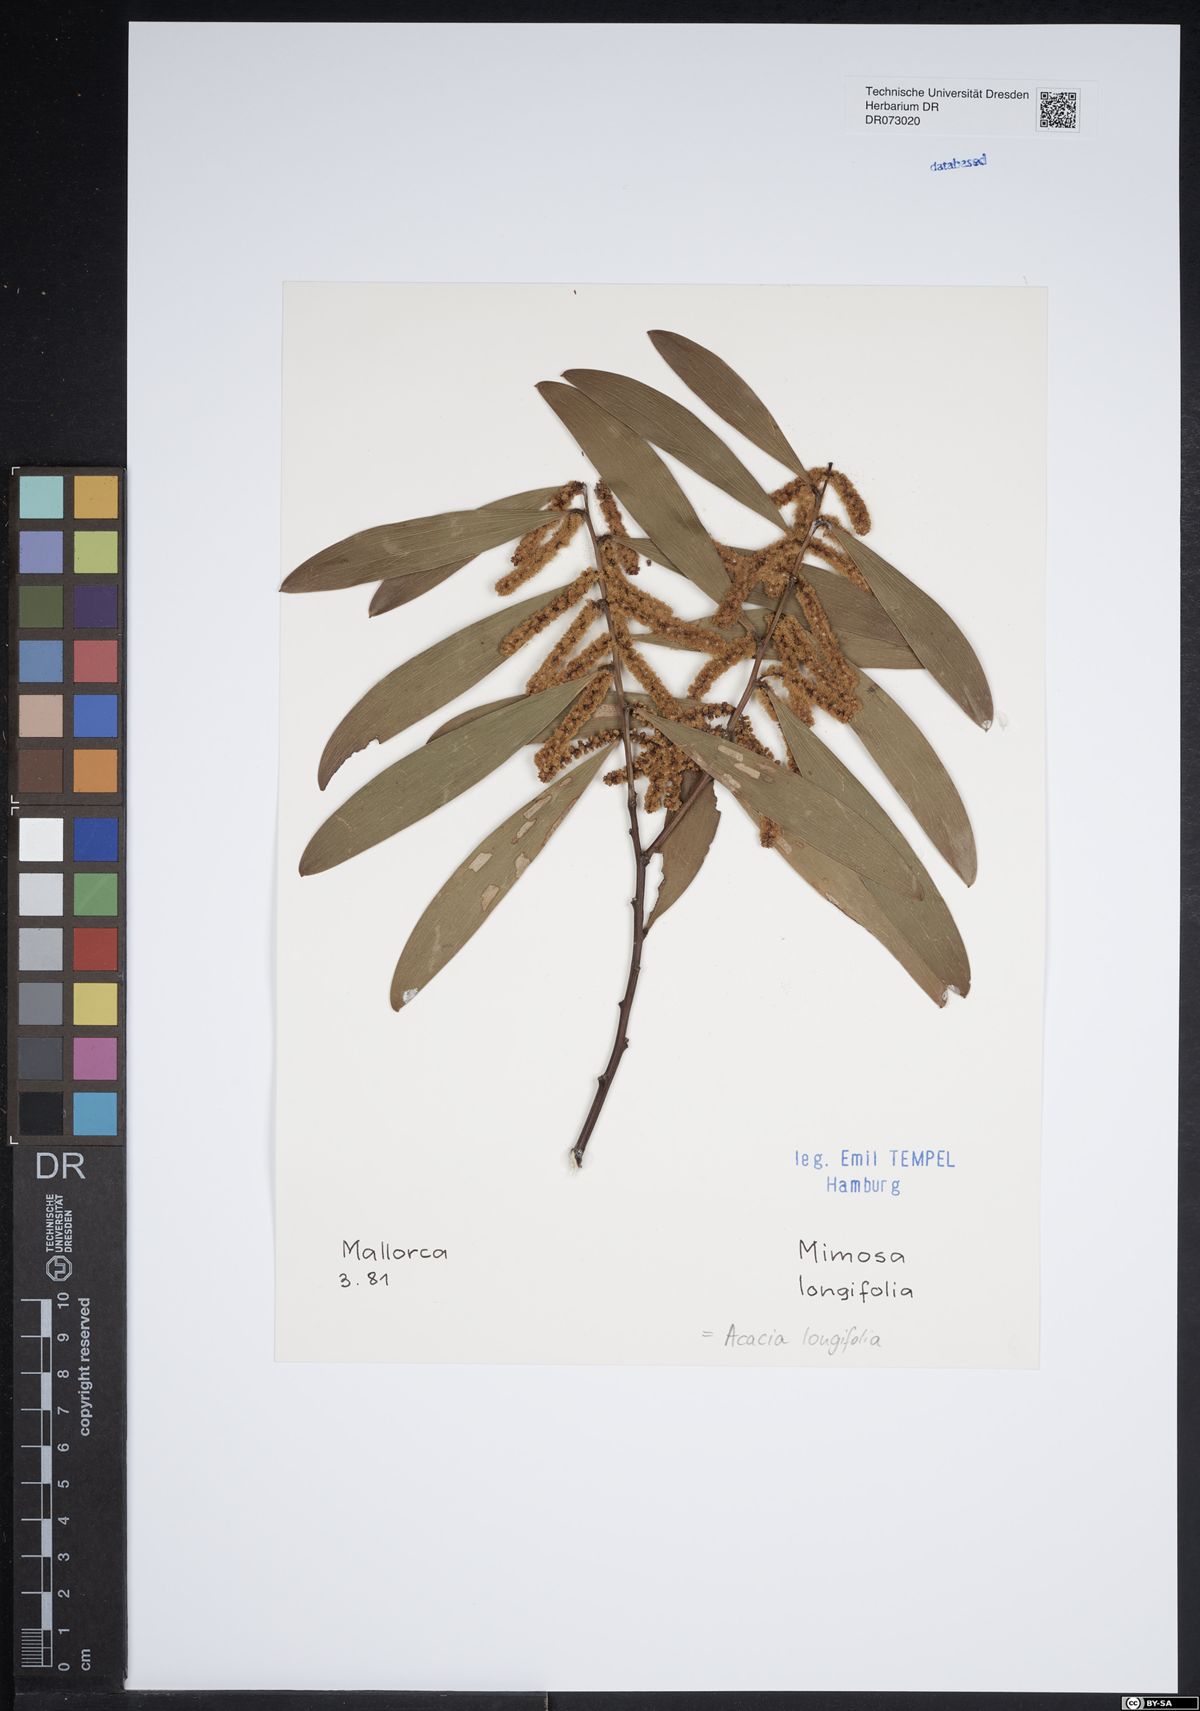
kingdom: Plantae
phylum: Tracheophyta
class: Magnoliopsida
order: Fabales
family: Fabaceae
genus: Acacia
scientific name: Acacia longifolia
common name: Sydney golden wattle
